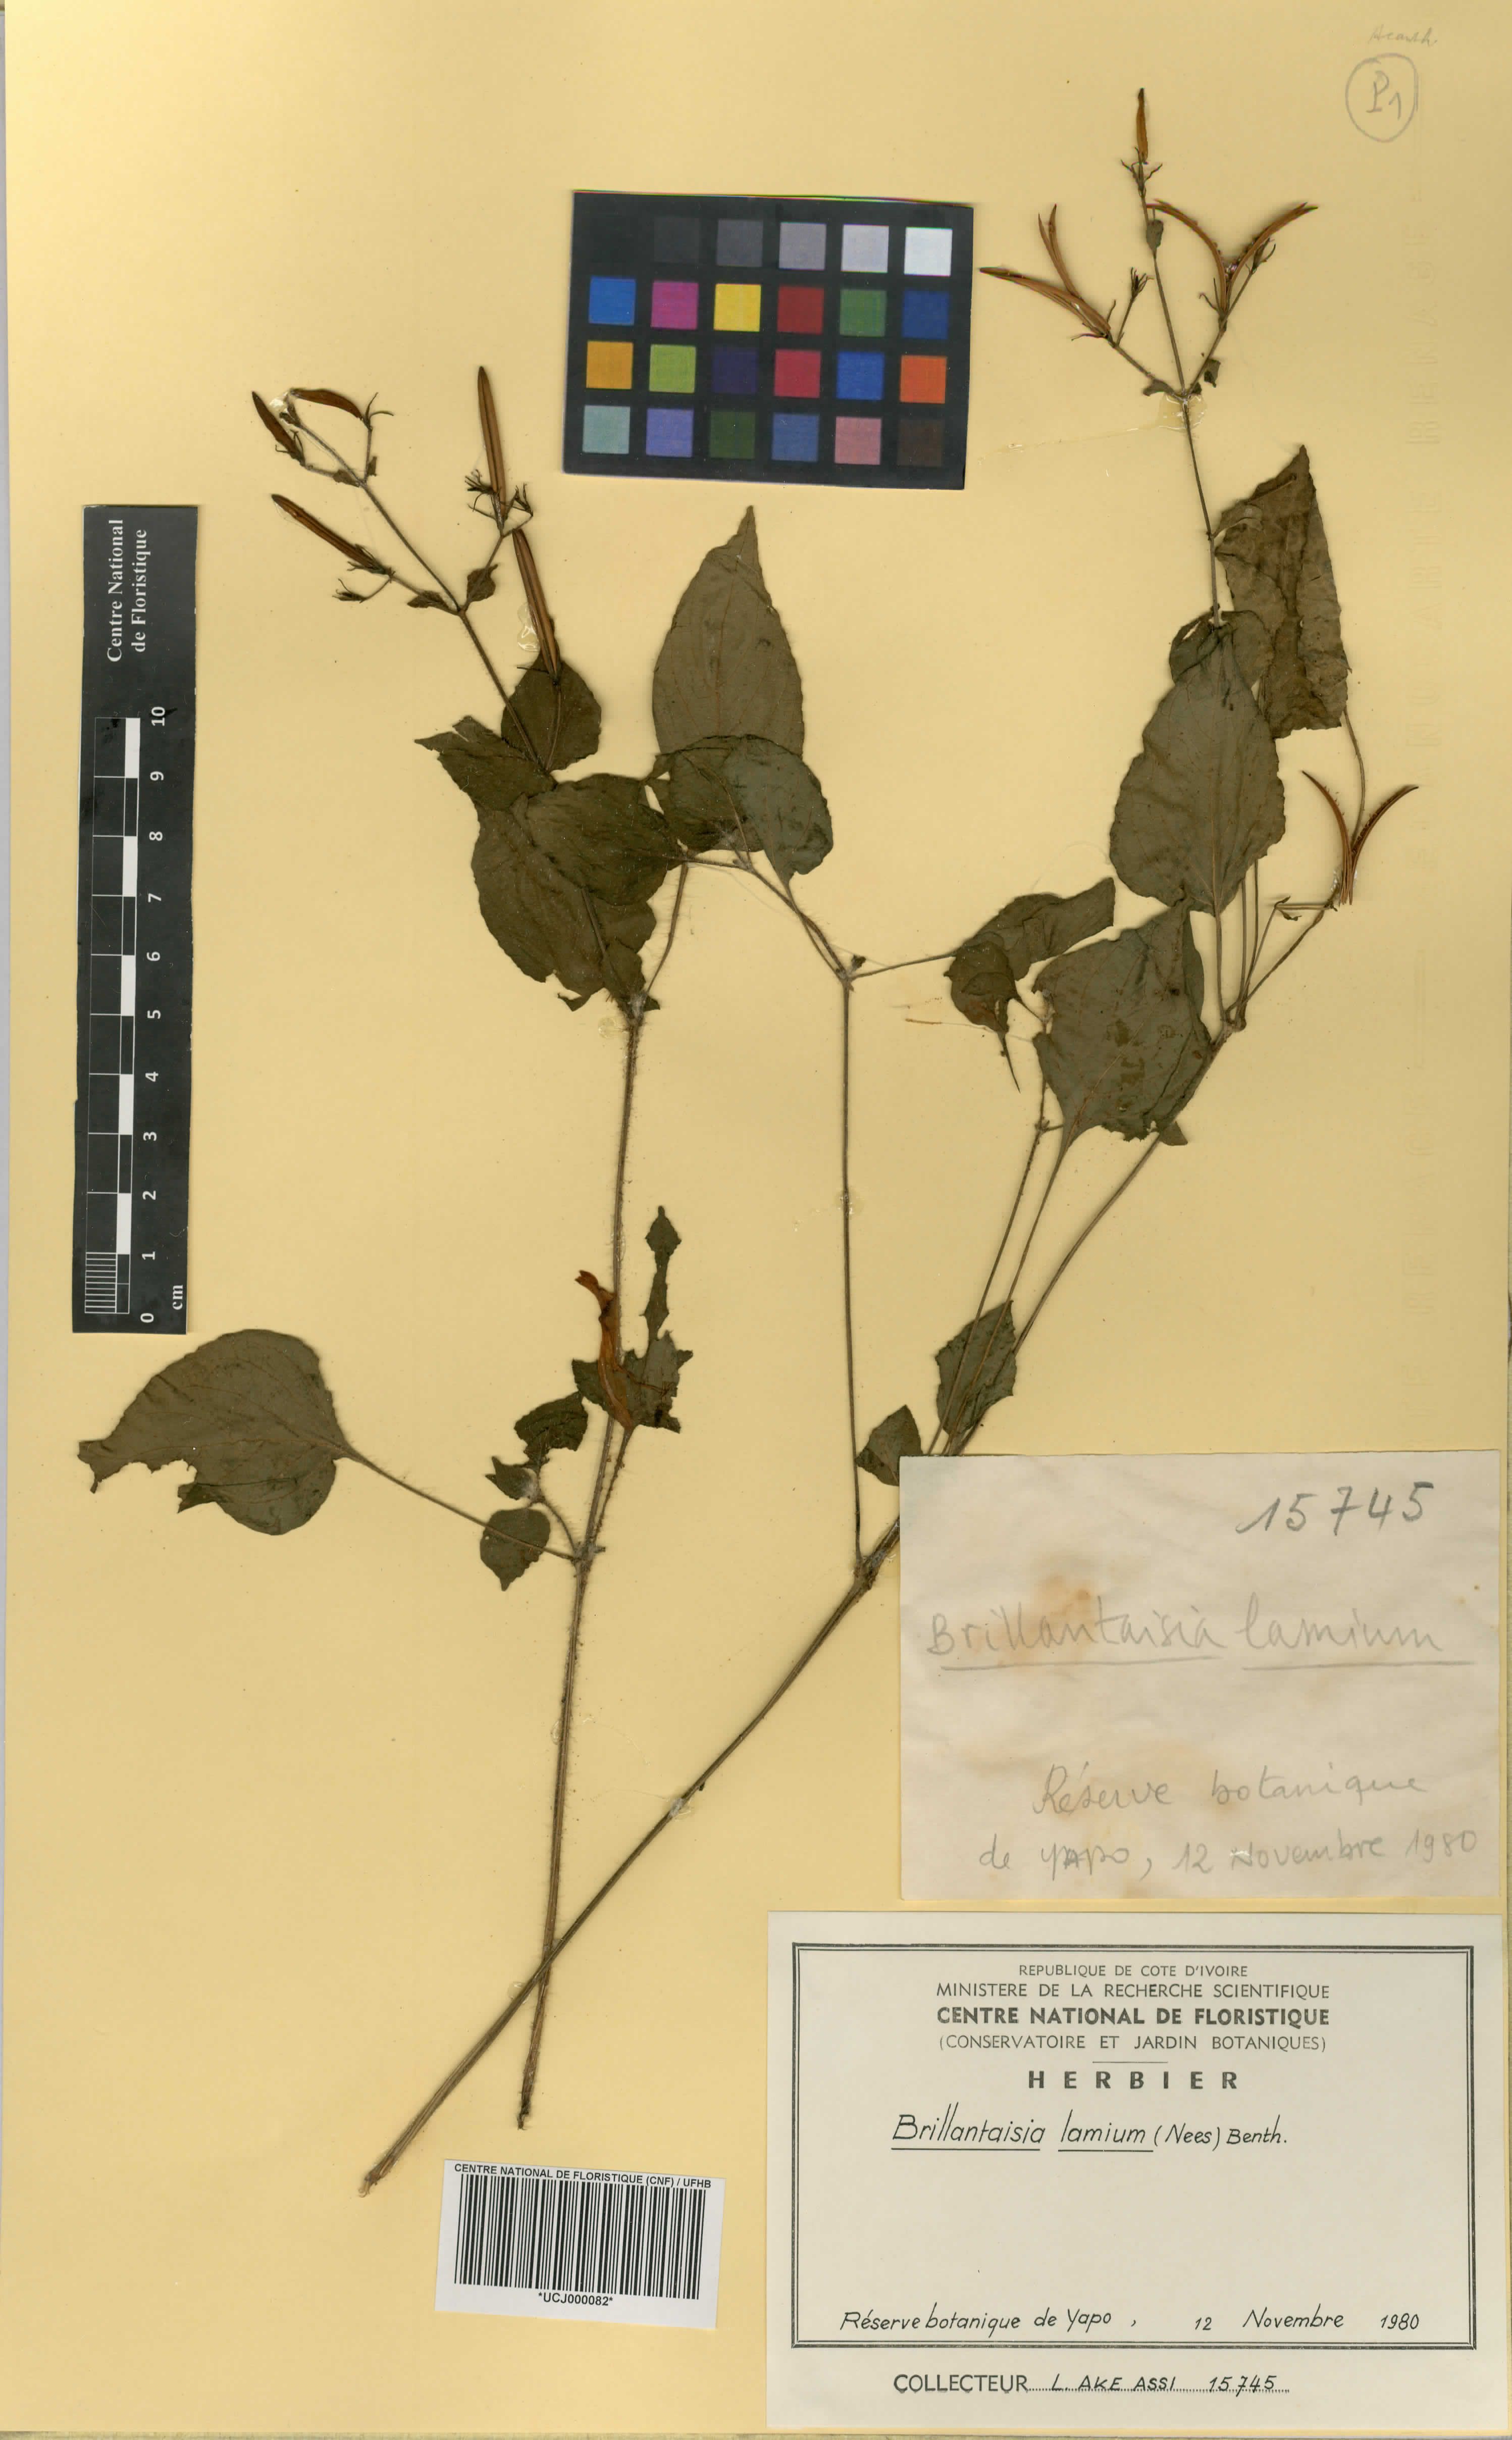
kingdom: Plantae
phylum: Tracheophyta
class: Magnoliopsida
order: Lamiales
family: Acanthaceae
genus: Brillantaisia
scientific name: Brillantaisia lamium
